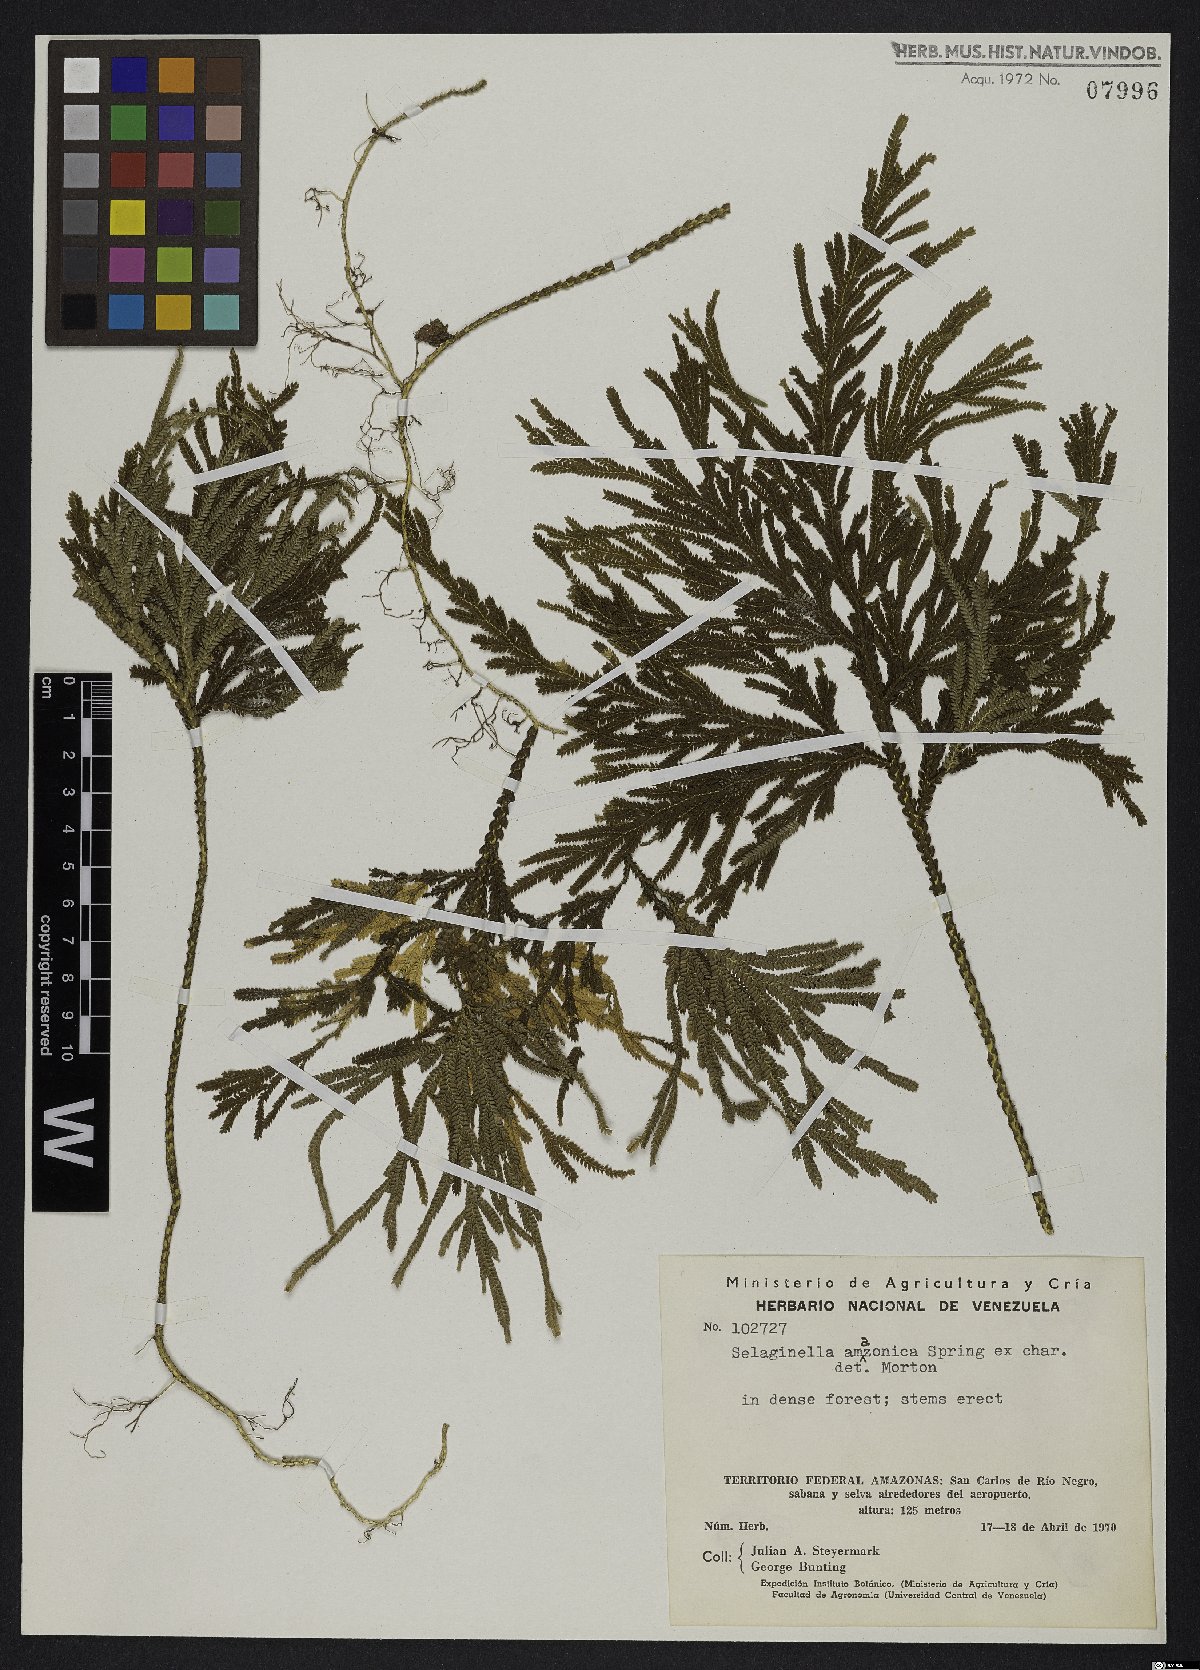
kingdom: Plantae
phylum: Tracheophyta
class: Lycopodiopsida
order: Selaginellales
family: Selaginellaceae
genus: Selaginella
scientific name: Selaginella amazonica
